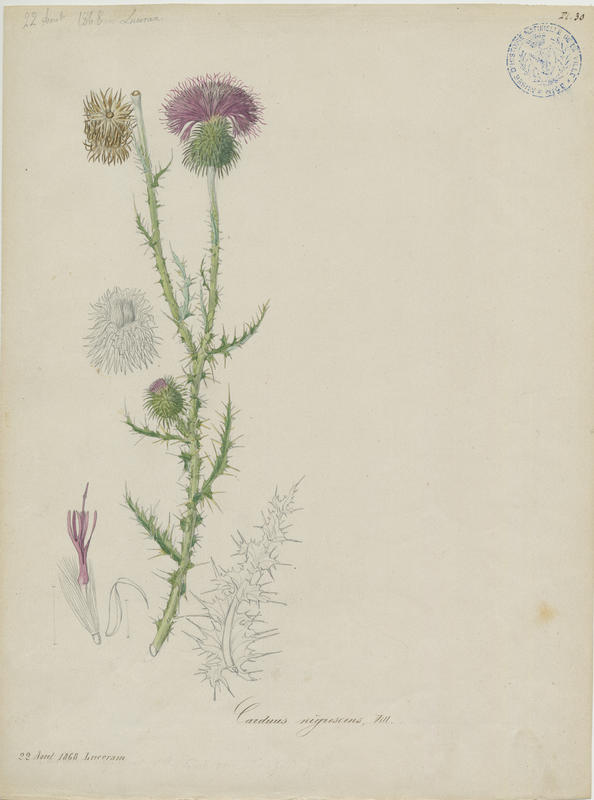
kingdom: Plantae
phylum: Tracheophyta
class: Magnoliopsida
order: Asterales
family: Asteraceae
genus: Carduus
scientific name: Carduus nigrescens
